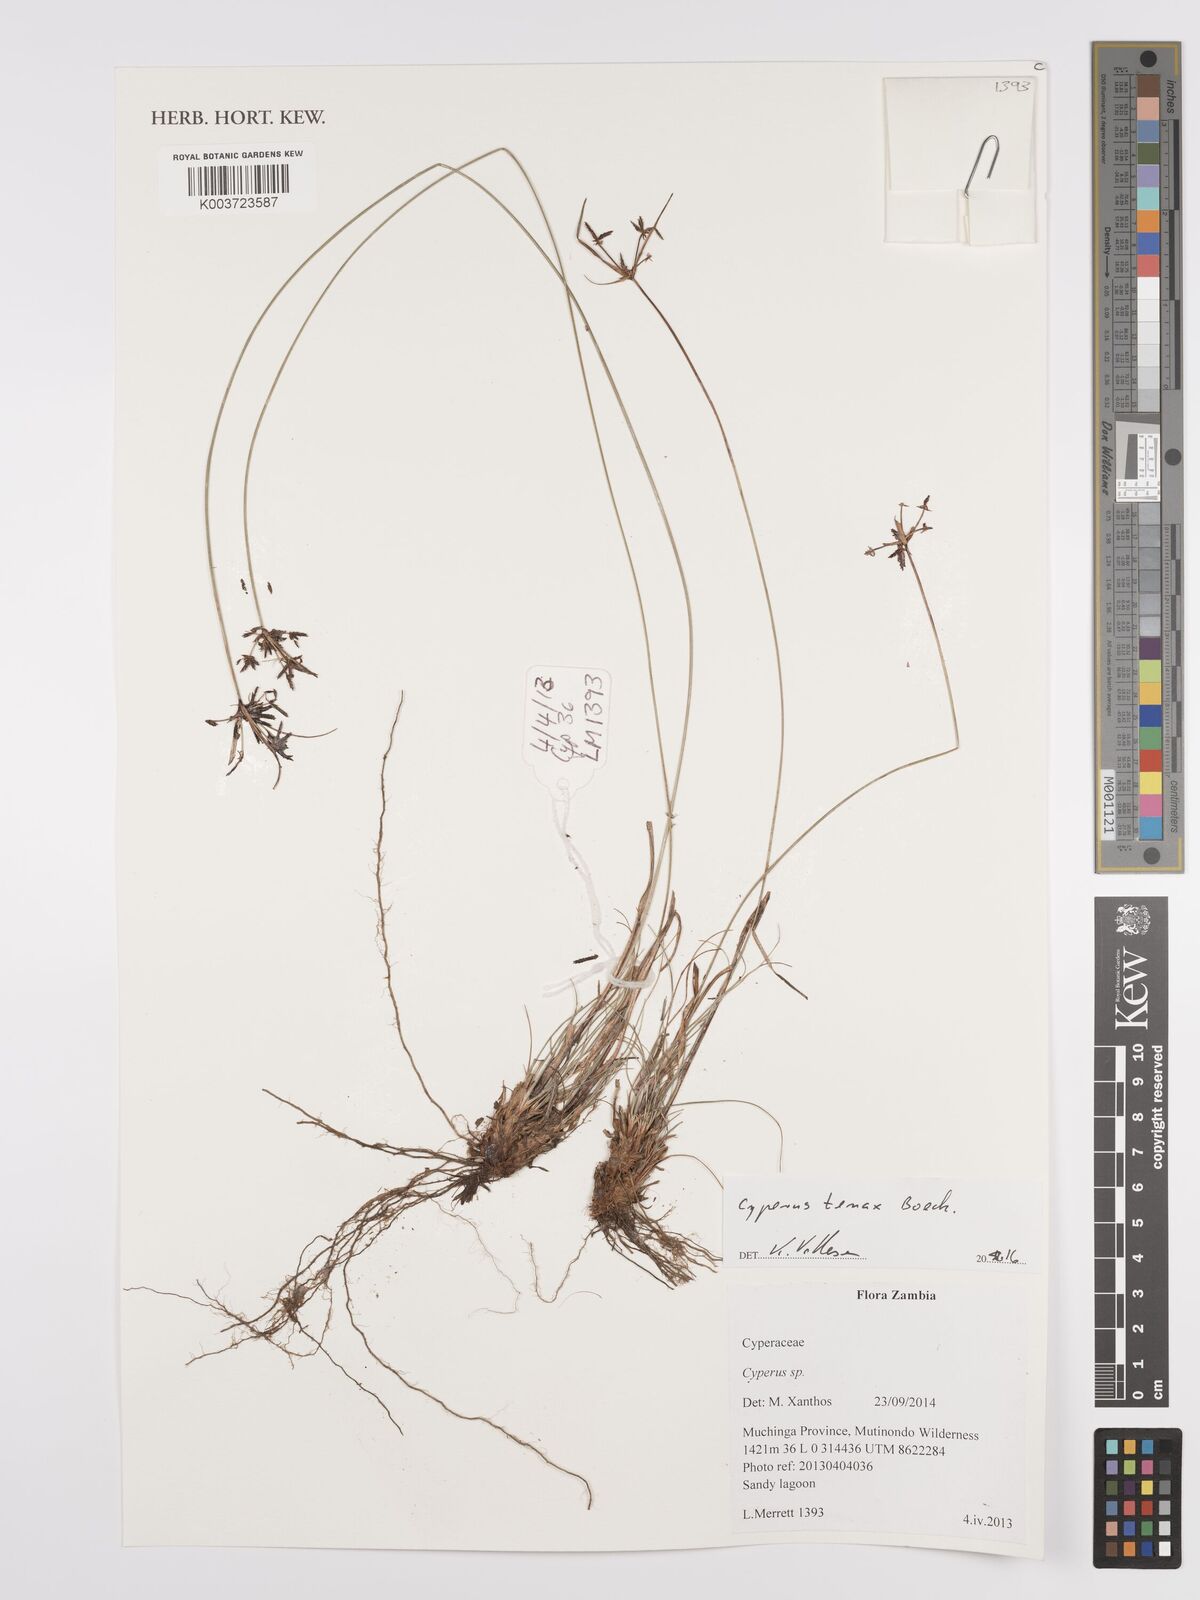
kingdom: Plantae
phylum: Tracheophyta
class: Liliopsida
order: Poales
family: Cyperaceae
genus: Cyperus
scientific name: Cyperus tenax
